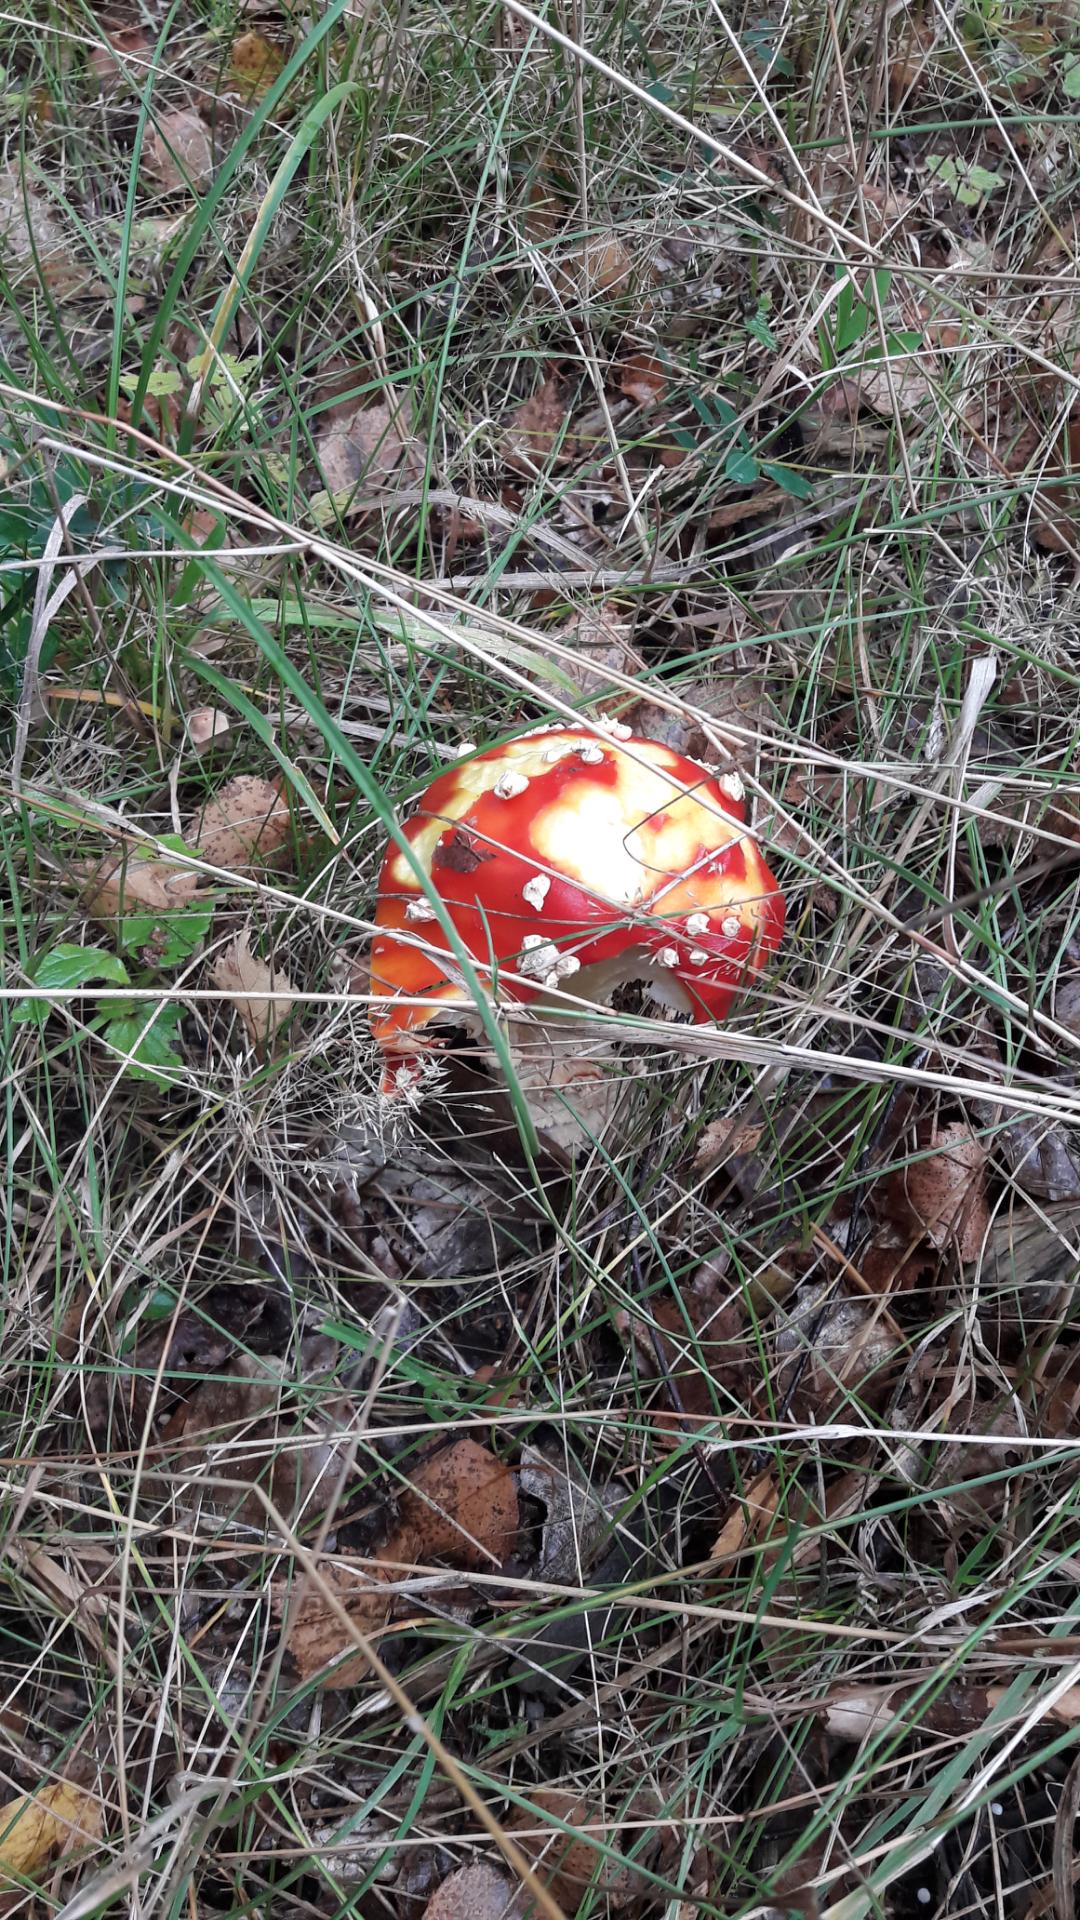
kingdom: Fungi
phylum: Basidiomycota
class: Agaricomycetes
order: Agaricales
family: Amanitaceae
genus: Amanita
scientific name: Amanita muscaria
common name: rød fluesvamp
